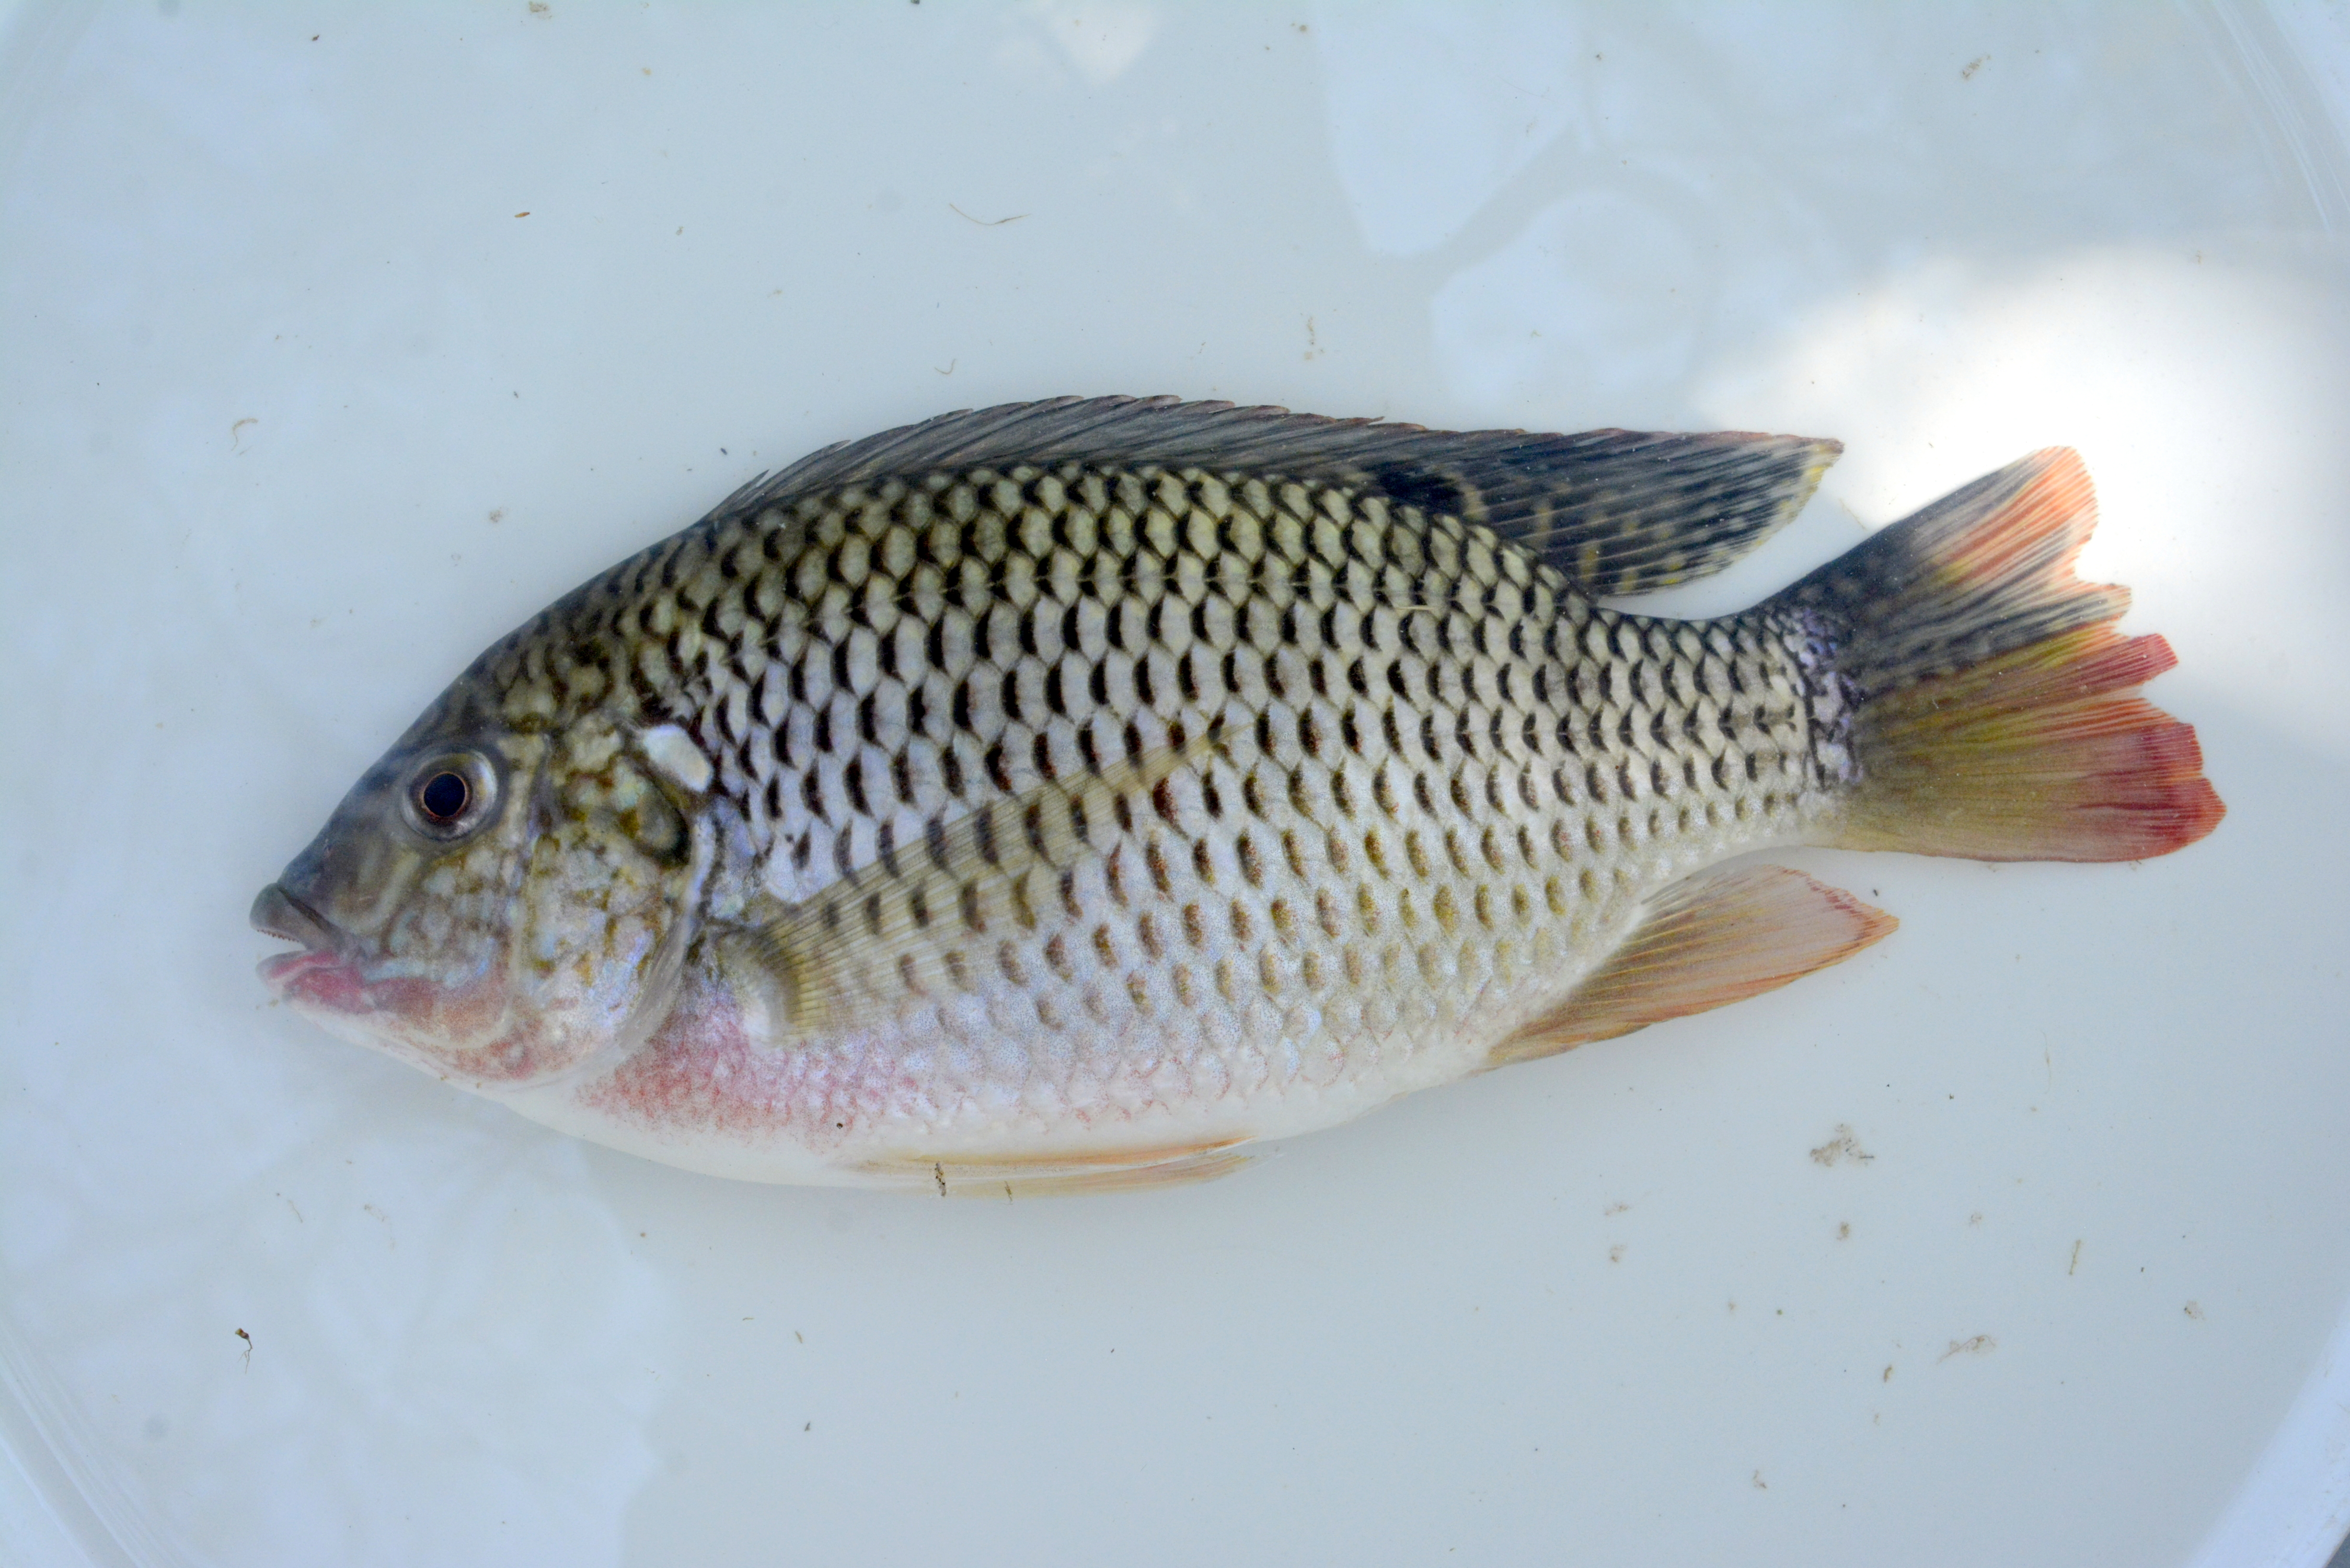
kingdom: Animalia
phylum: Chordata
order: Perciformes
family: Cichlidae
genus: Coptodon
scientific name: Coptodon rendalli
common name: Redbreast tilapia
